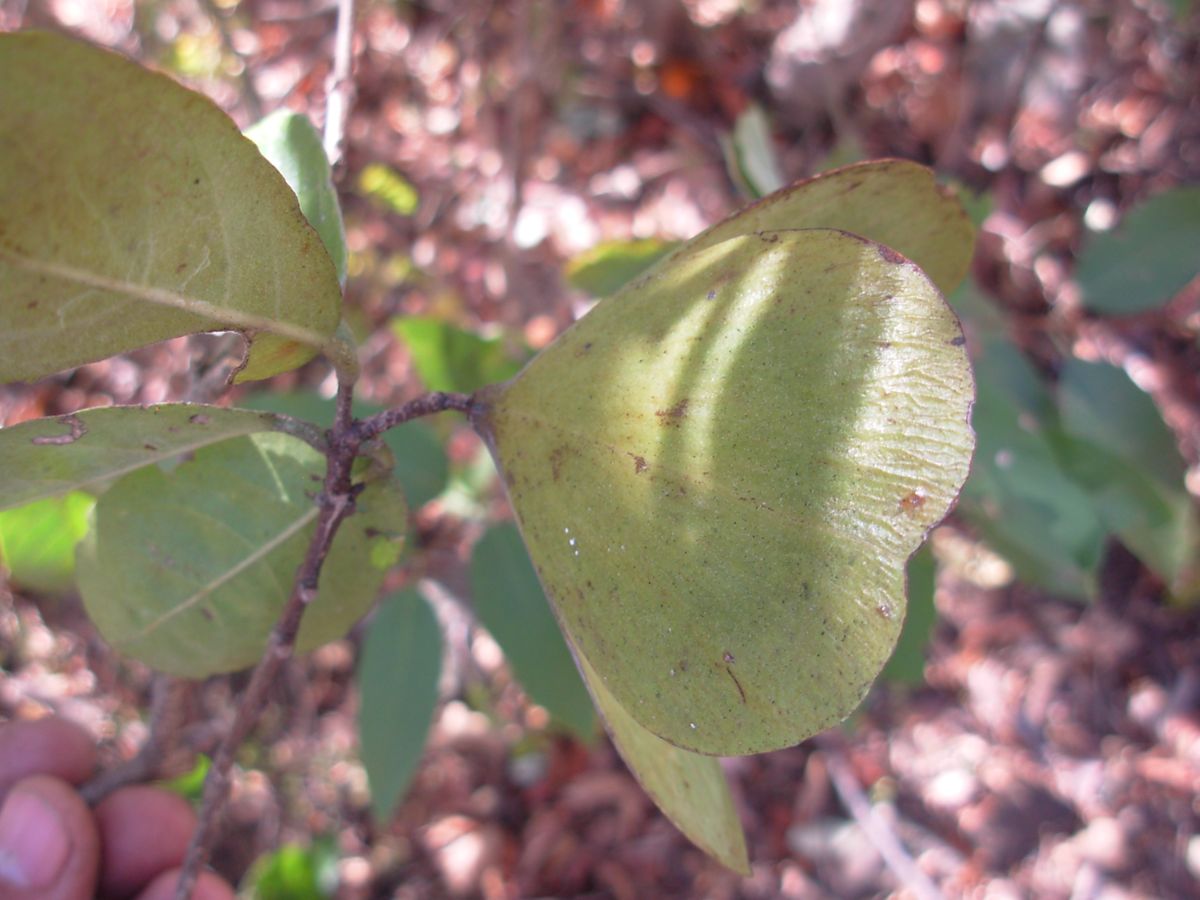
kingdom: Plantae
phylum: Tracheophyta
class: Magnoliopsida
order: Celastrales
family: Celastraceae
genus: Semialarium
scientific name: Semialarium mexicanum
